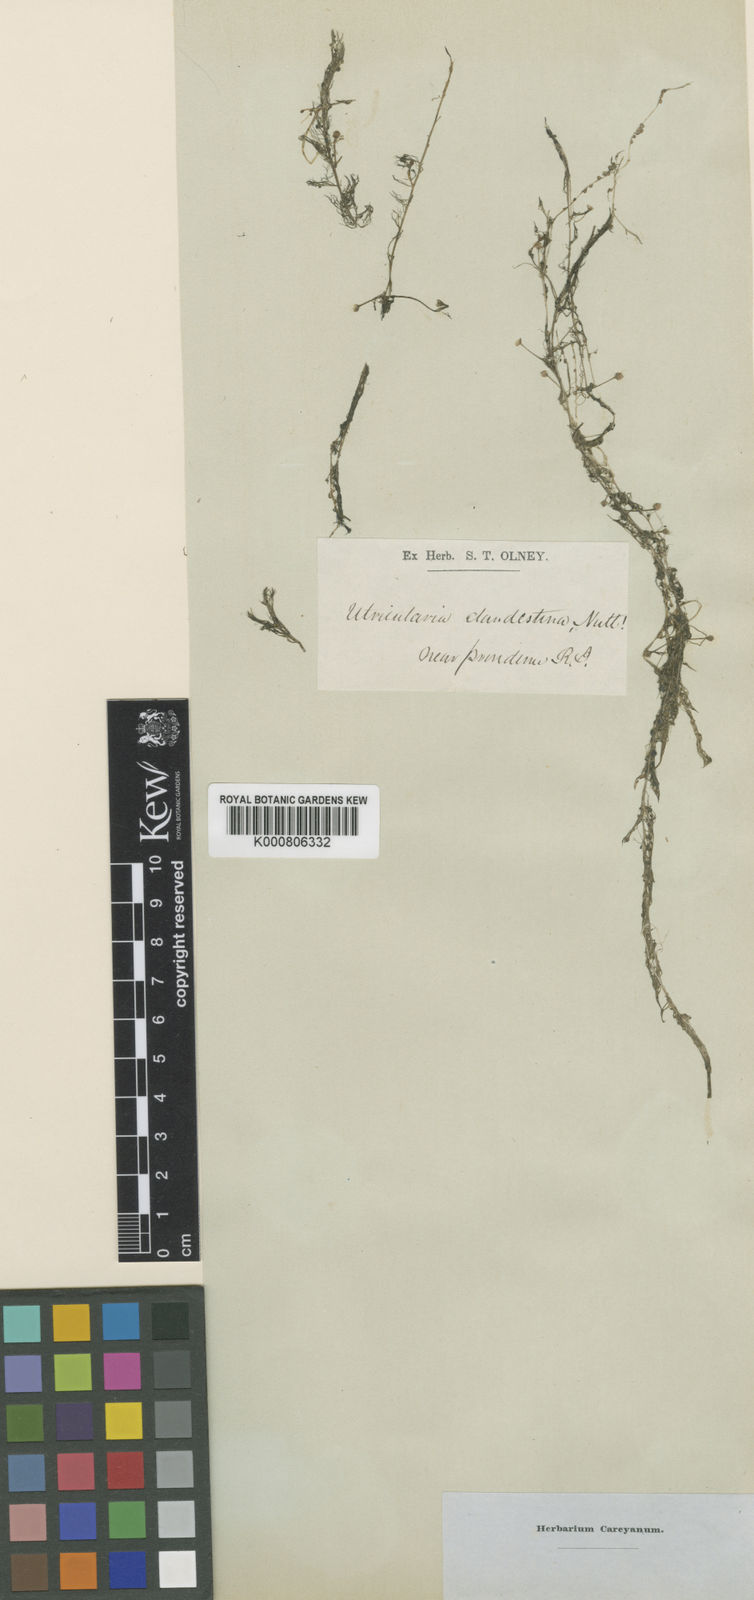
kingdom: Plantae
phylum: Tracheophyta
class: Magnoliopsida
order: Lamiales
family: Lentibulariaceae
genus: Utricularia
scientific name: Utricularia geminiscapa
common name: Hidden-fruit bladderwort
